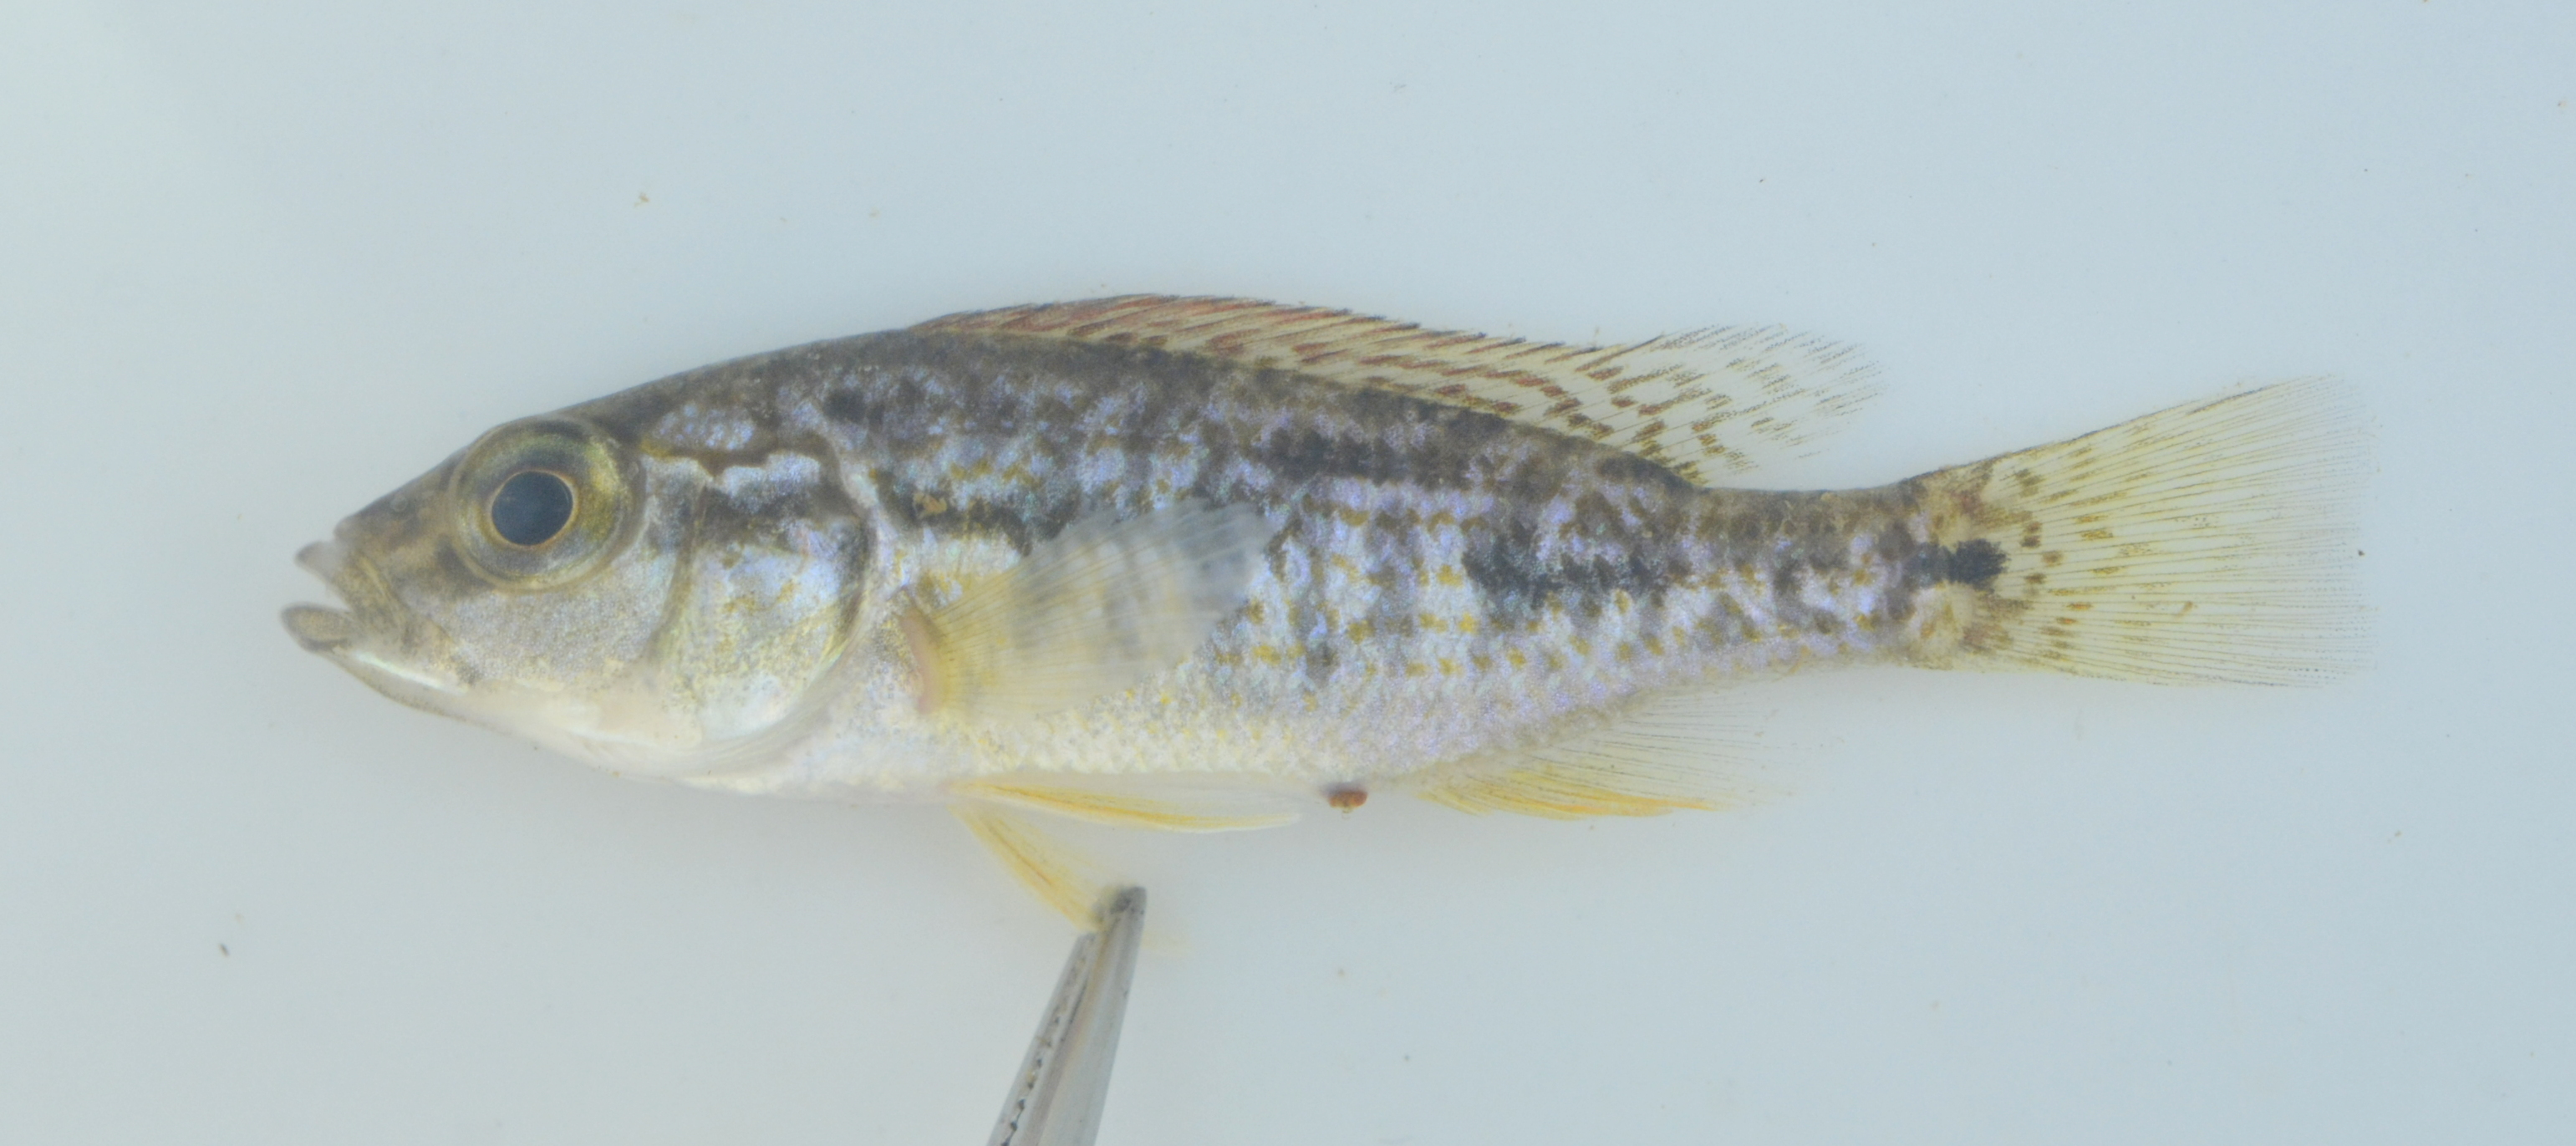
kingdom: Animalia
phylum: Chordata
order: Siluriformes
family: Amphiliidae
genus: Zaireichthys
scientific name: Zaireichthys conspicuus
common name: Blotched sand catlet
